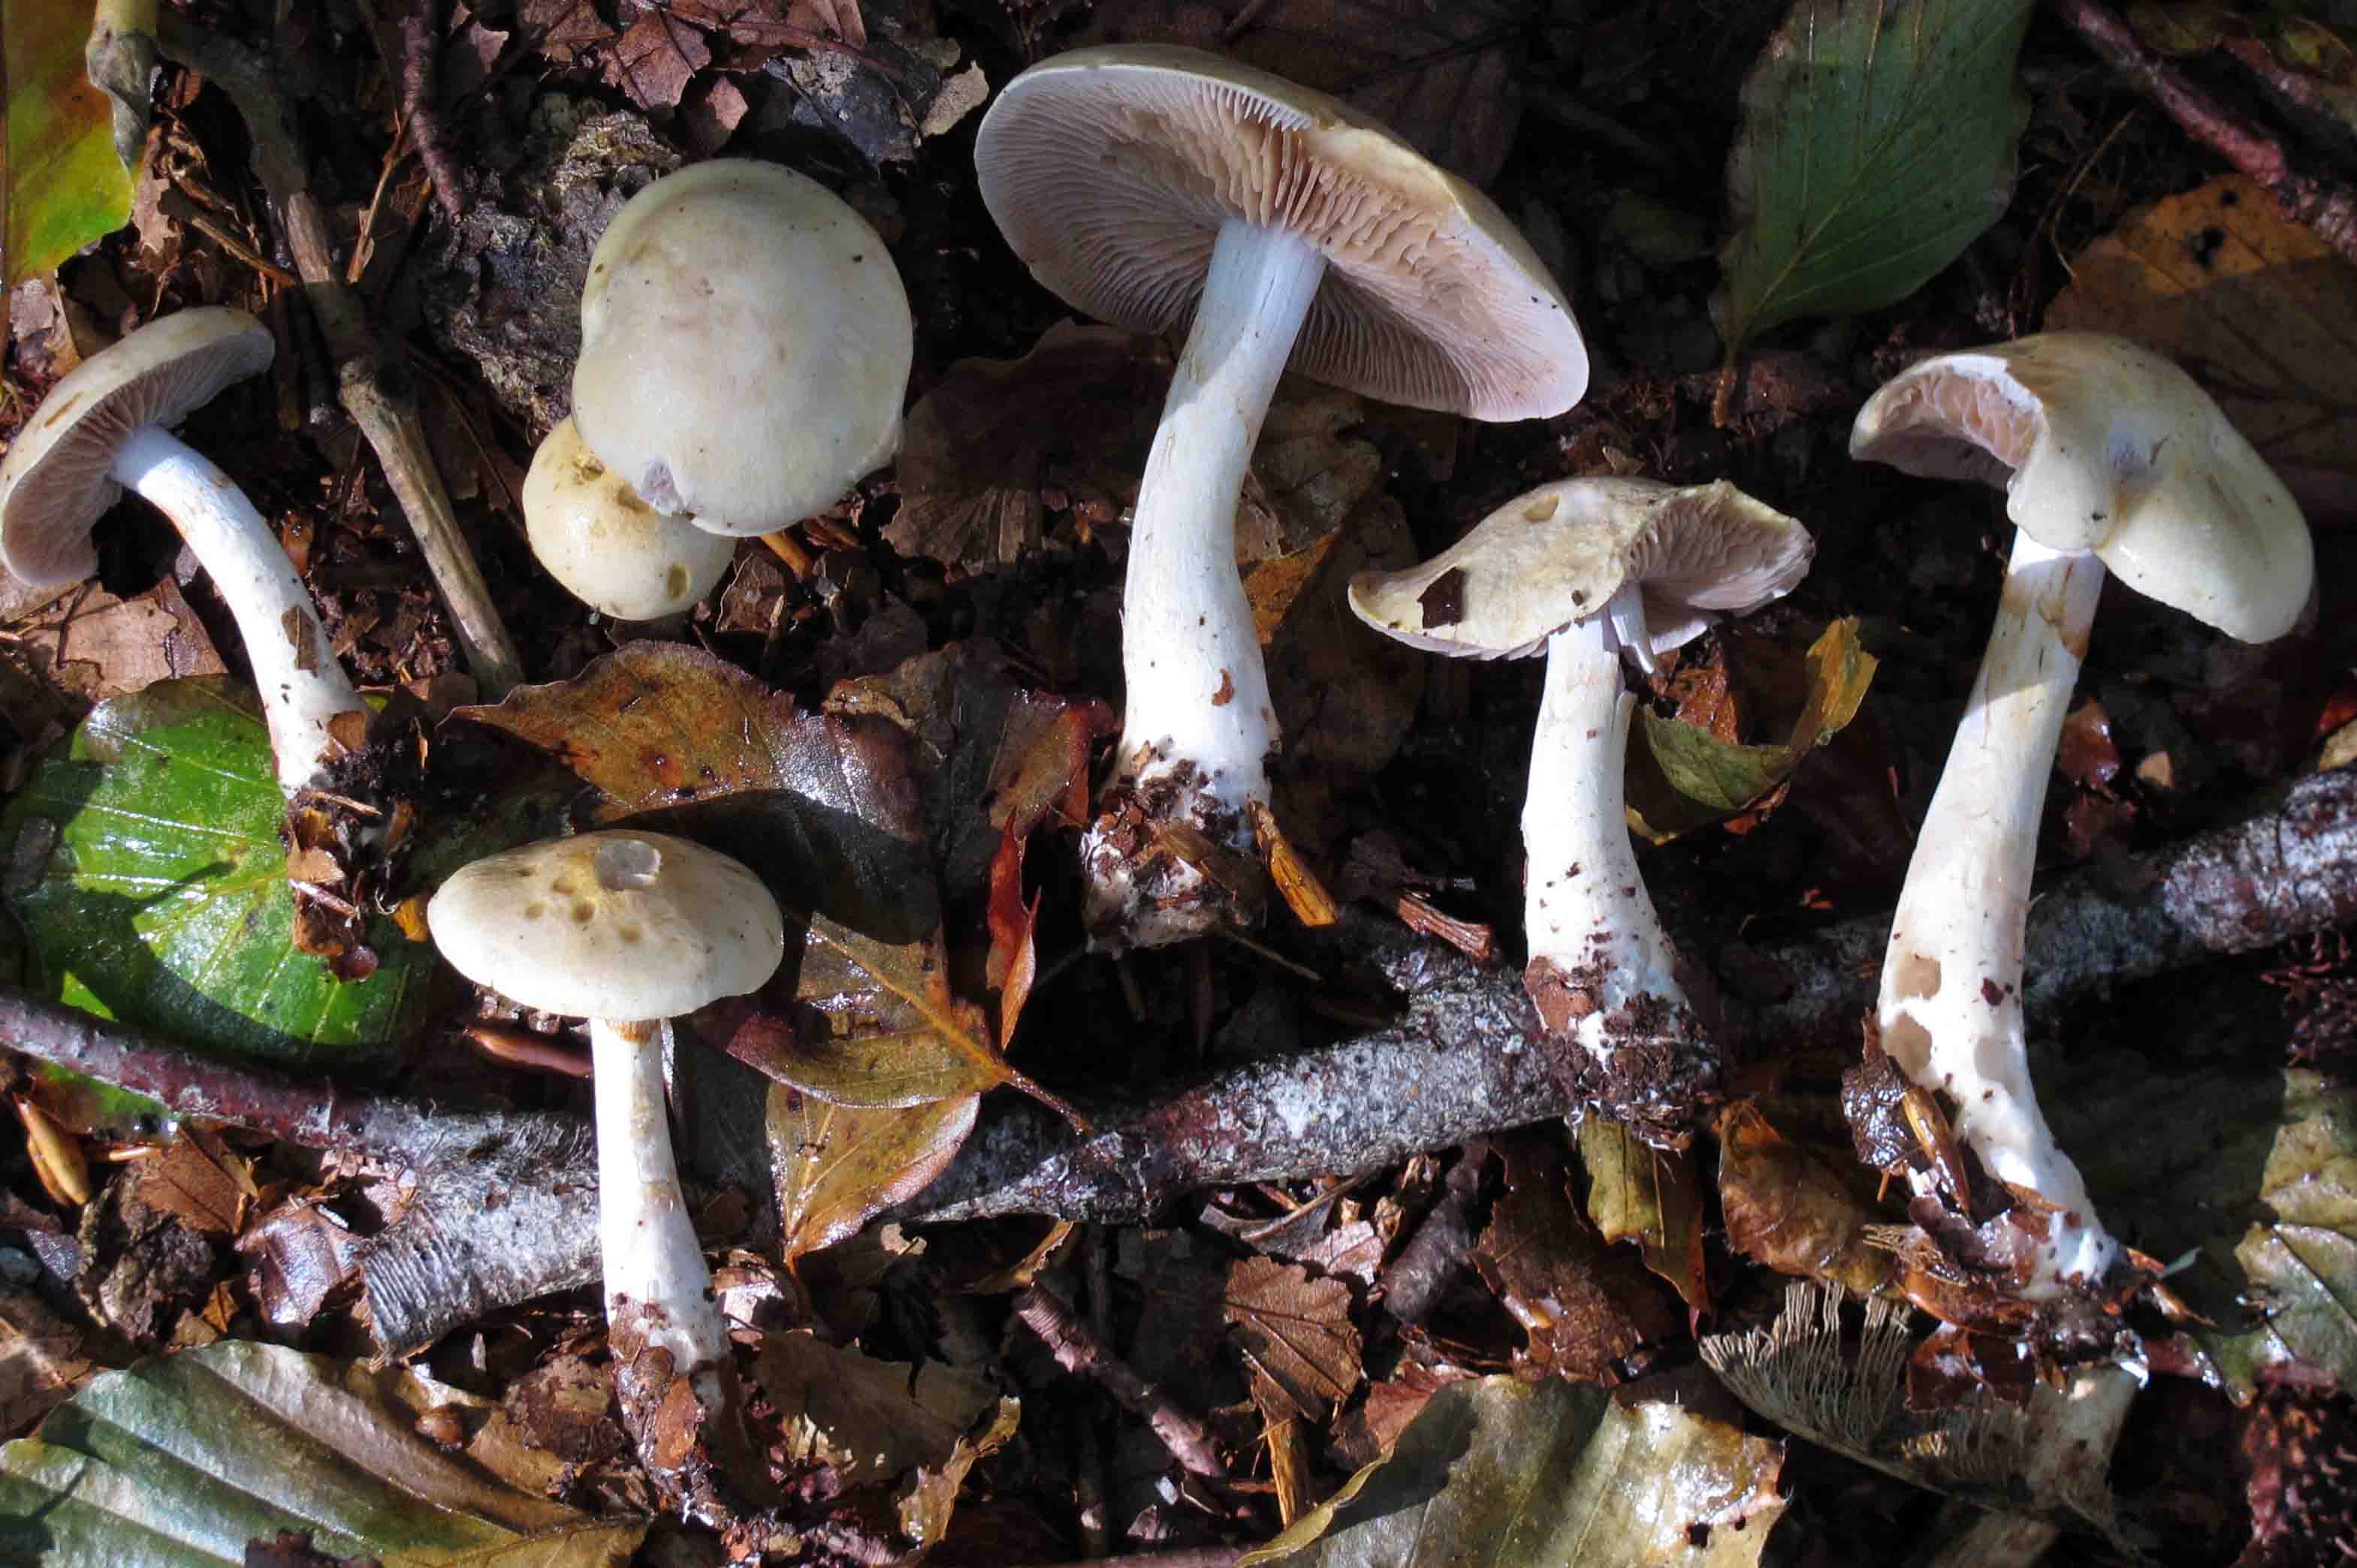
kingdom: Fungi
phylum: Basidiomycota
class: Agaricomycetes
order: Agaricales
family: Cortinariaceae
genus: Cortinarius
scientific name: Cortinarius delibutus
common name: gul slørhat
